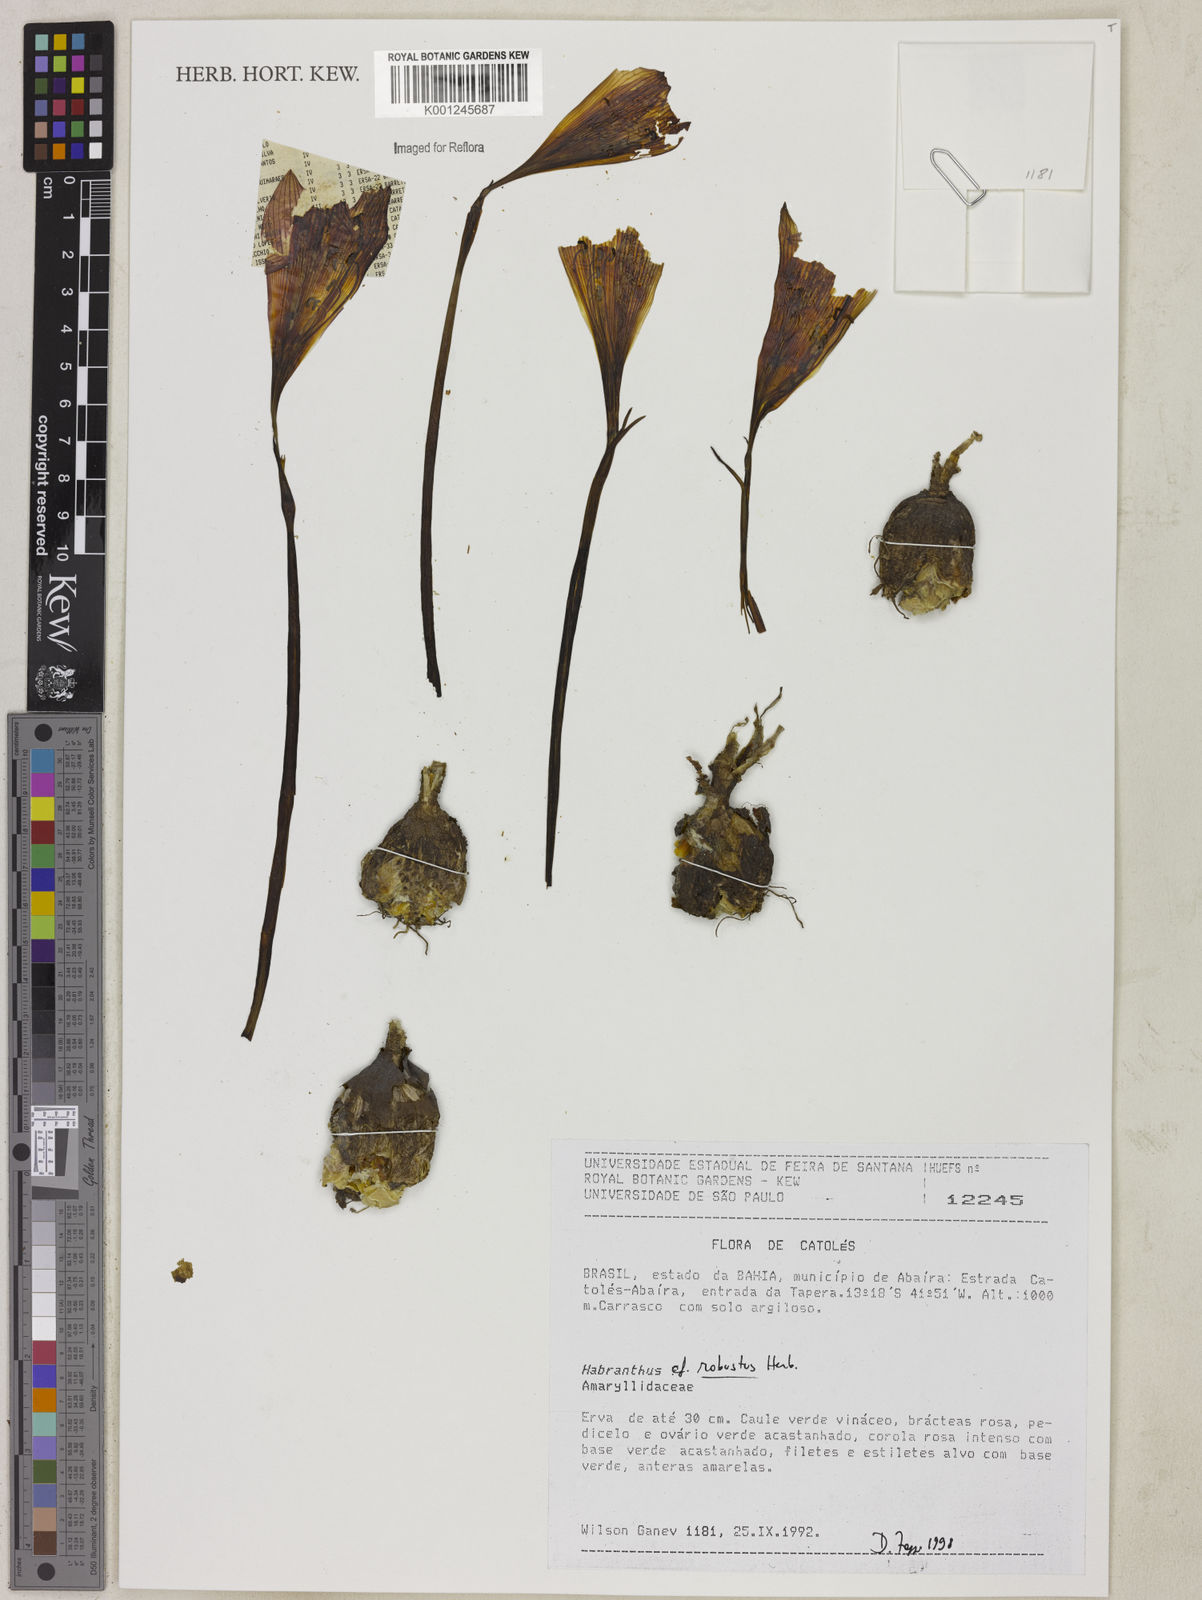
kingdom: Plantae
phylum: Tracheophyta
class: Liliopsida
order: Asparagales
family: Amaryllidaceae
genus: Zephyranthes
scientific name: Zephyranthes robusta
